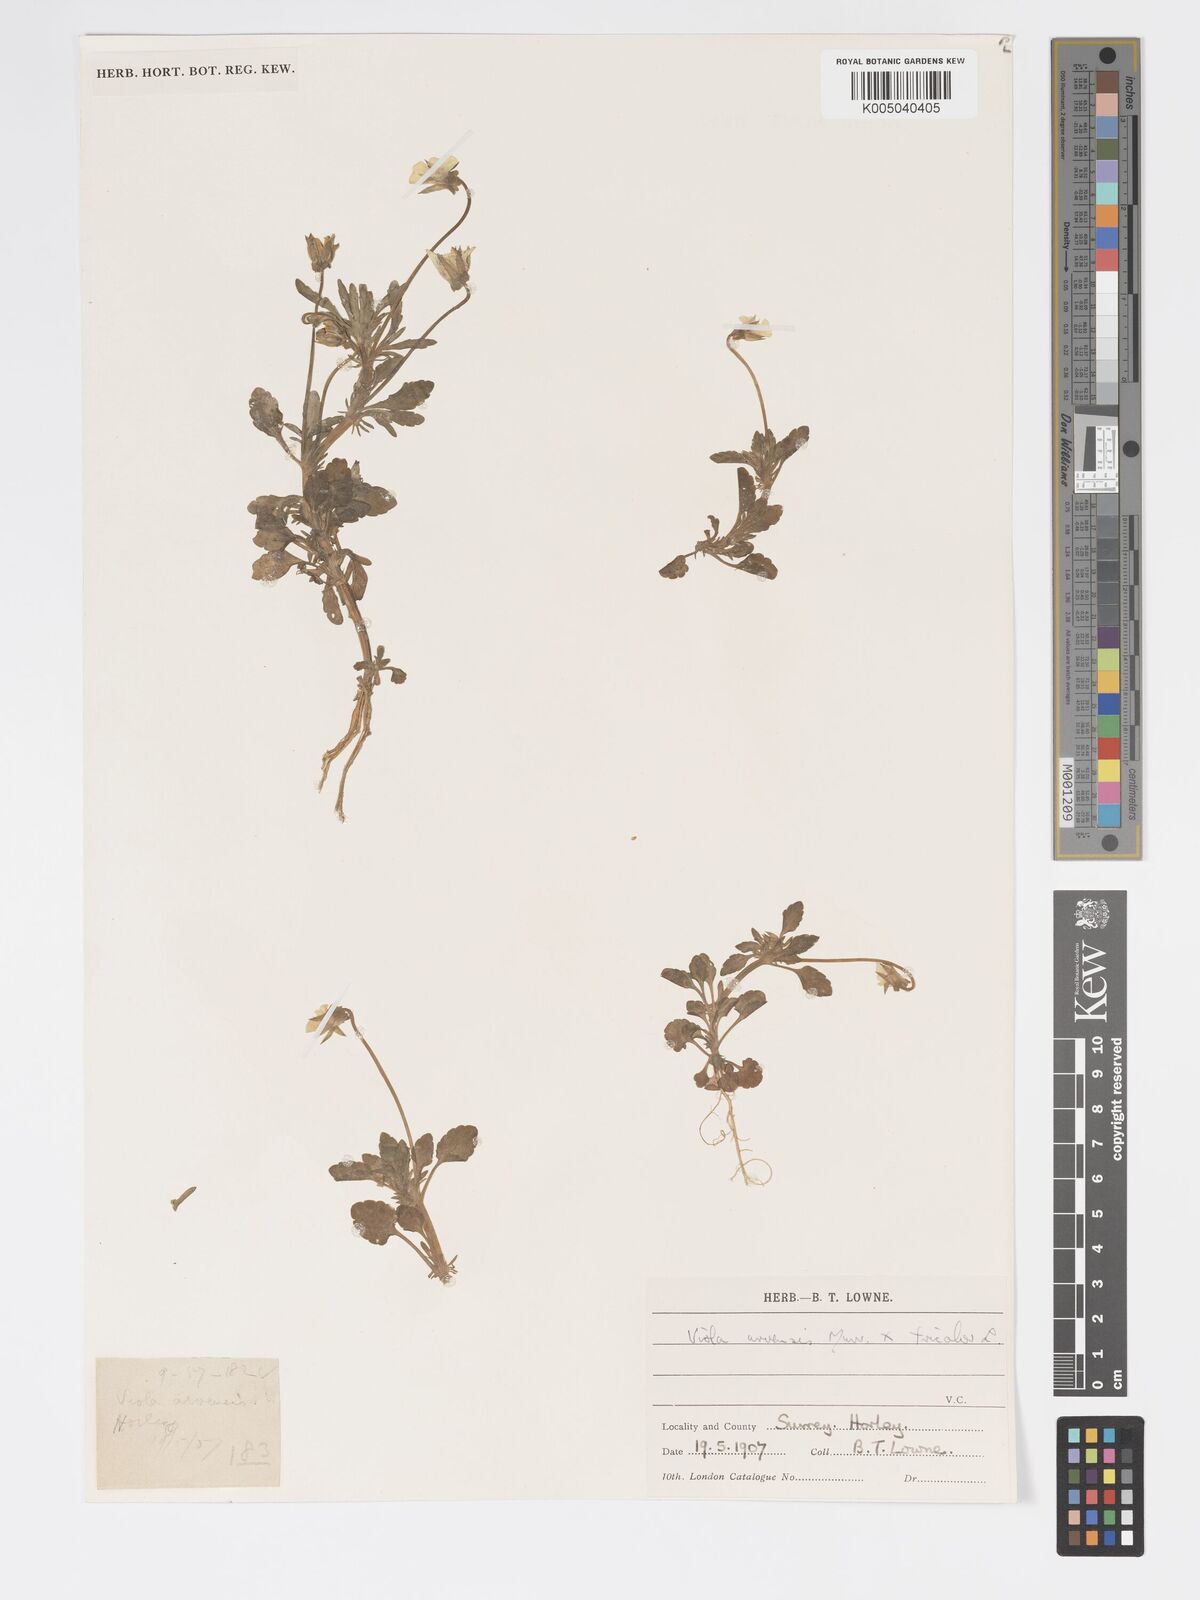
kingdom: Plantae
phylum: Tracheophyta
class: Magnoliopsida
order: Malpighiales
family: Violaceae
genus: Viola
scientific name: Viola arvensis
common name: Field pansy
